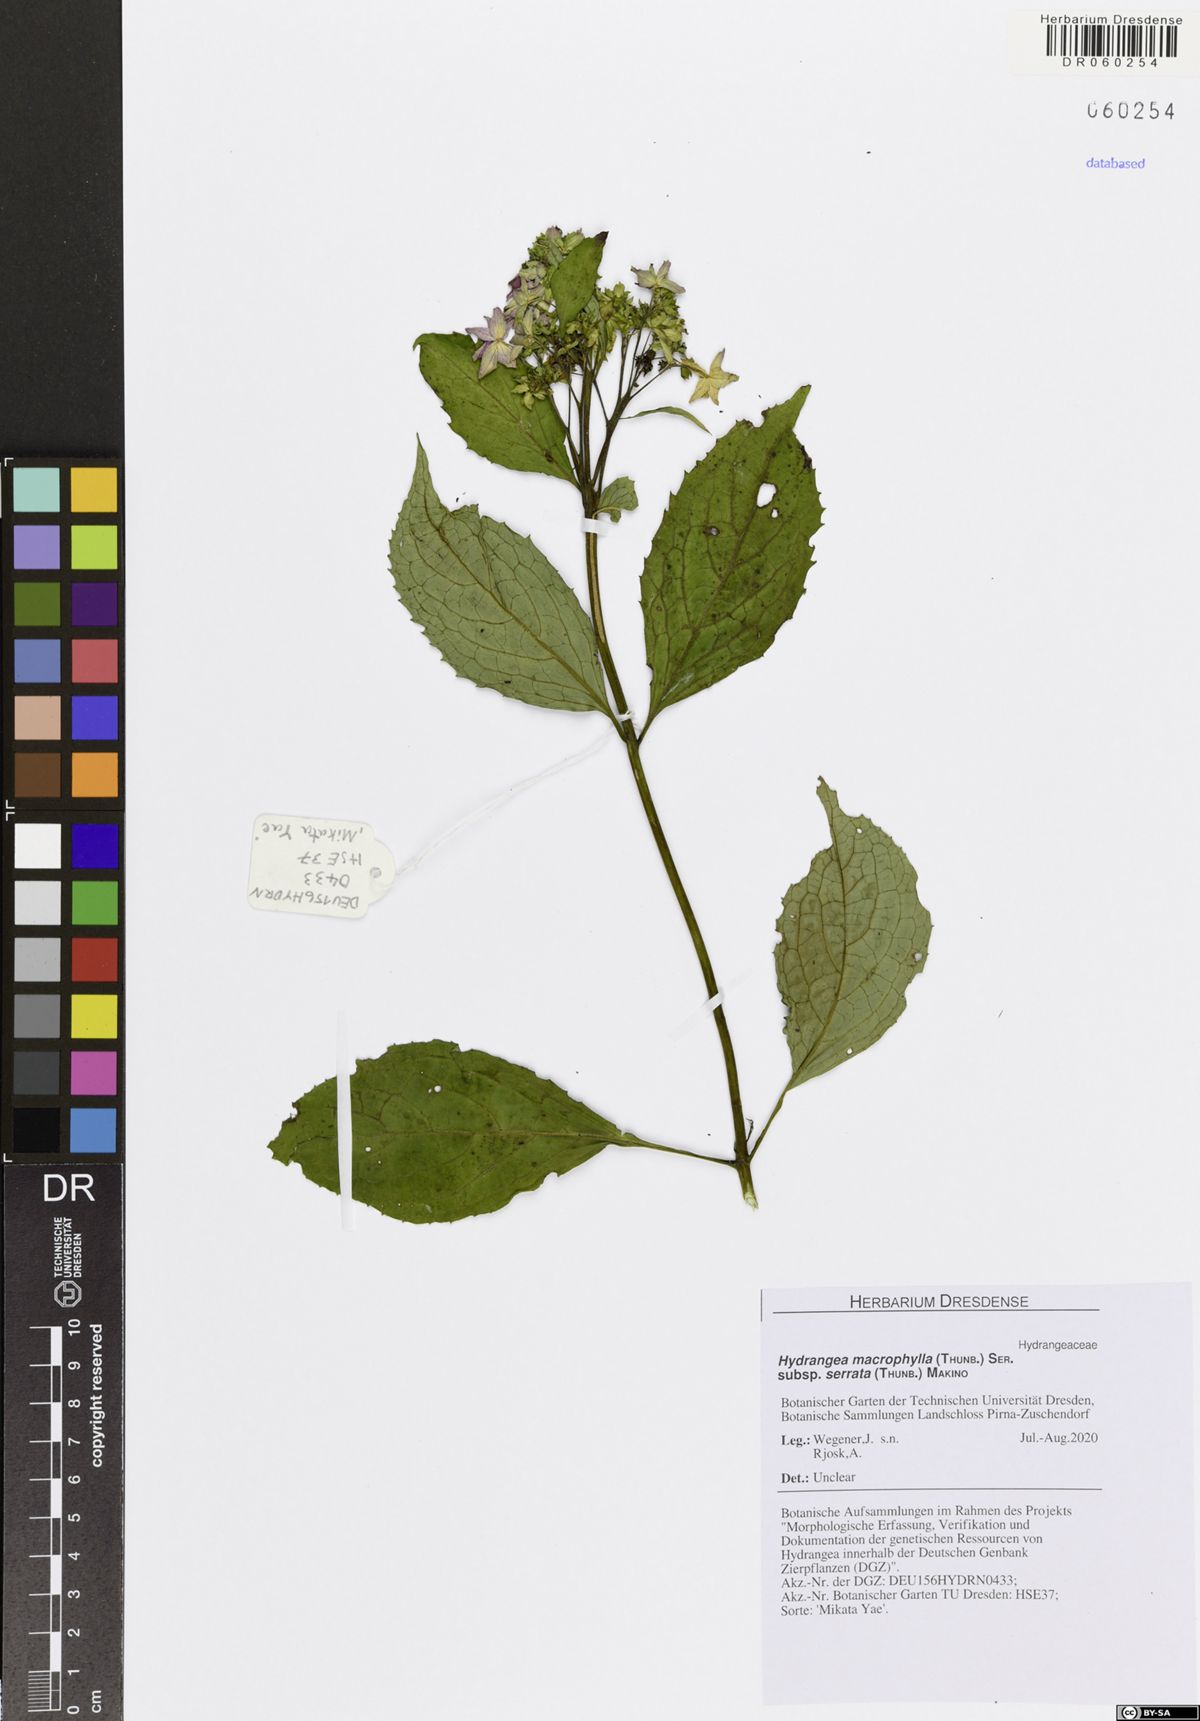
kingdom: Plantae
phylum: Tracheophyta
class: Magnoliopsida
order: Cornales
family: Hydrangeaceae
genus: Hydrangea
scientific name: Hydrangea serrata
